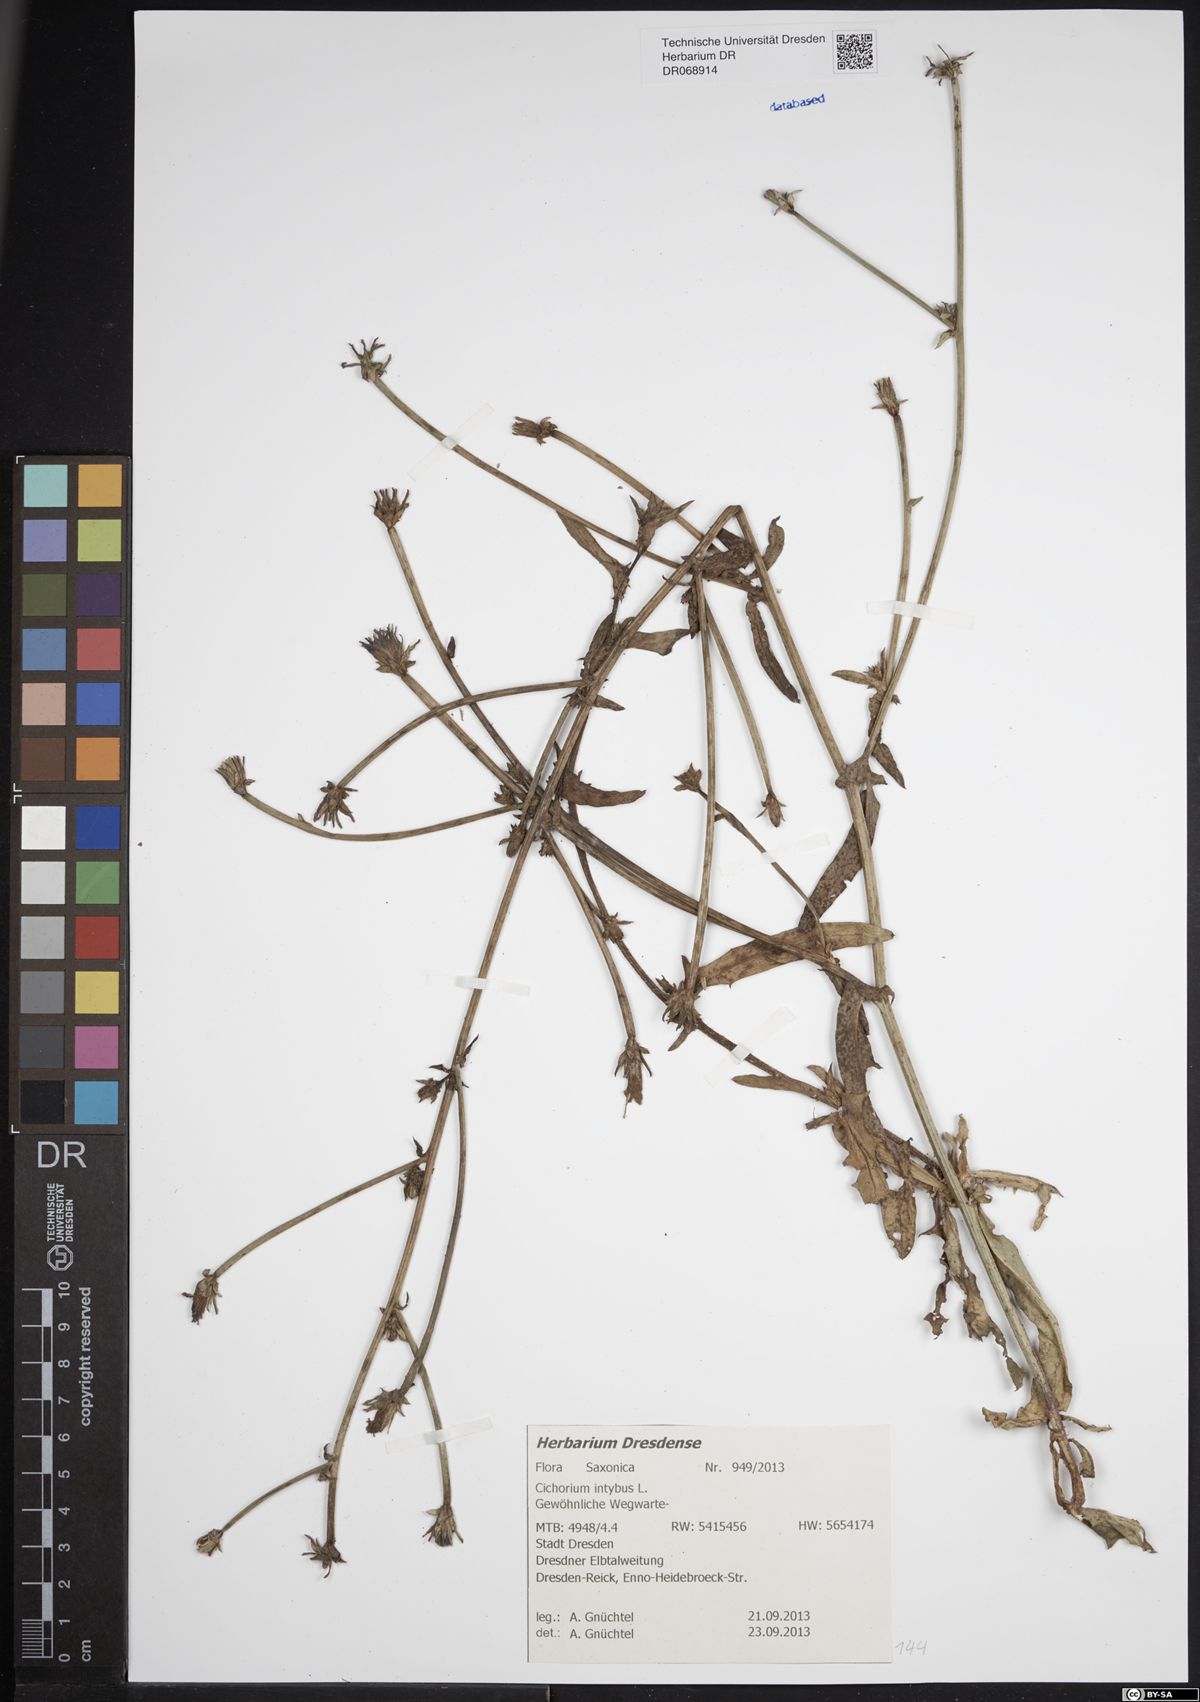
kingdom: Plantae
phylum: Tracheophyta
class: Magnoliopsida
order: Asterales
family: Asteraceae
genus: Cichorium
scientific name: Cichorium intybus
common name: Chicory
